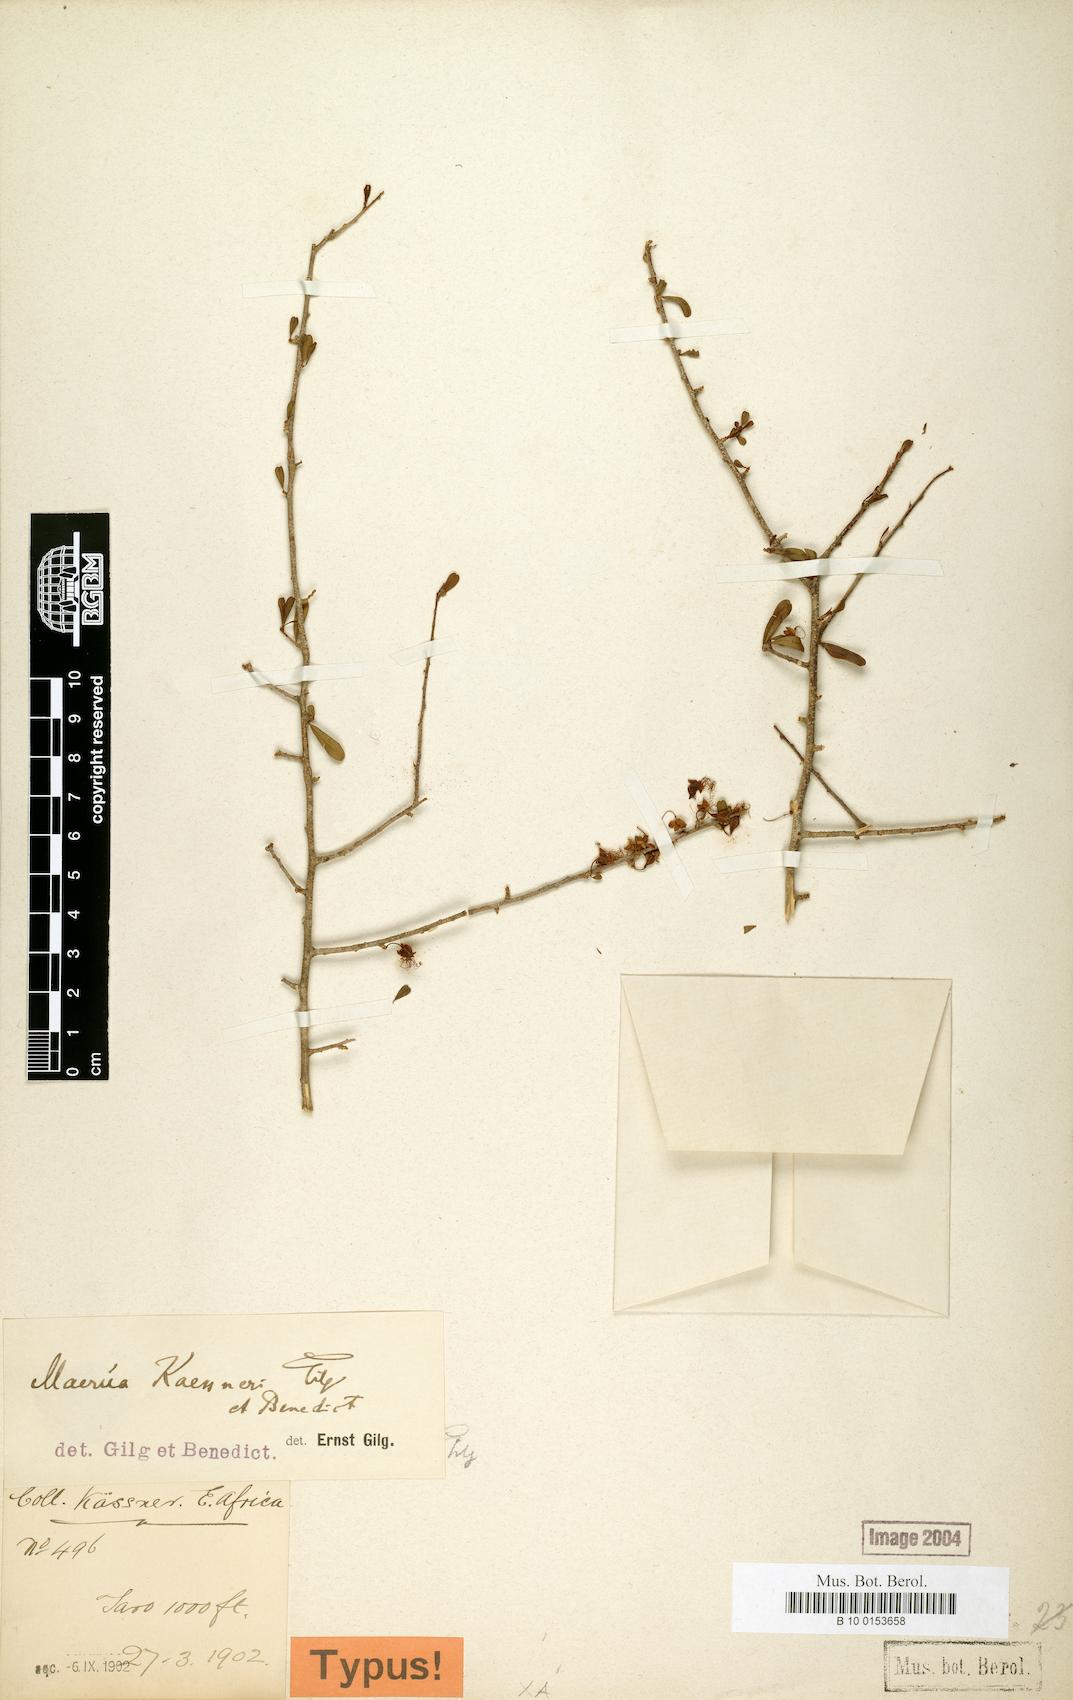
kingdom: Plantae
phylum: Tracheophyta
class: Magnoliopsida
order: Brassicales
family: Capparaceae
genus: Maerua
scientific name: Maerua kaessneri
